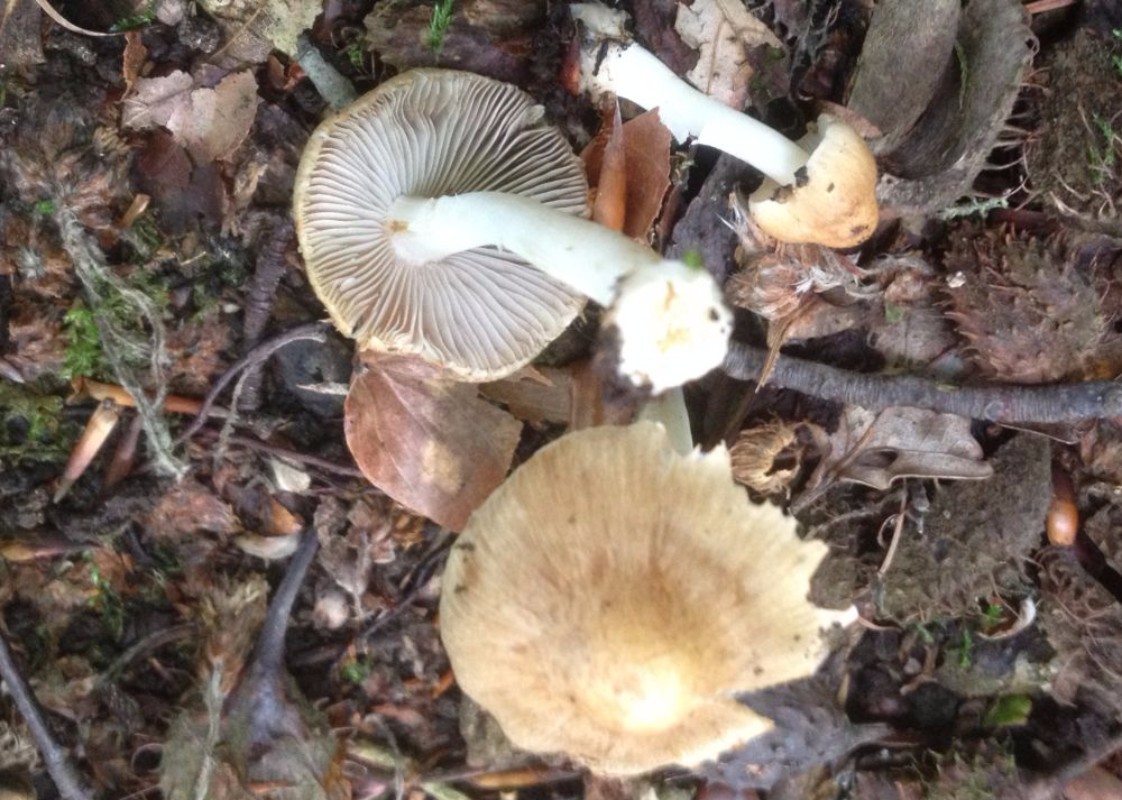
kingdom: Fungi
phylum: Basidiomycota
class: Agaricomycetes
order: Agaricales
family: Inocybaceae
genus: Inocybe
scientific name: Inocybe
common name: trævlhat
